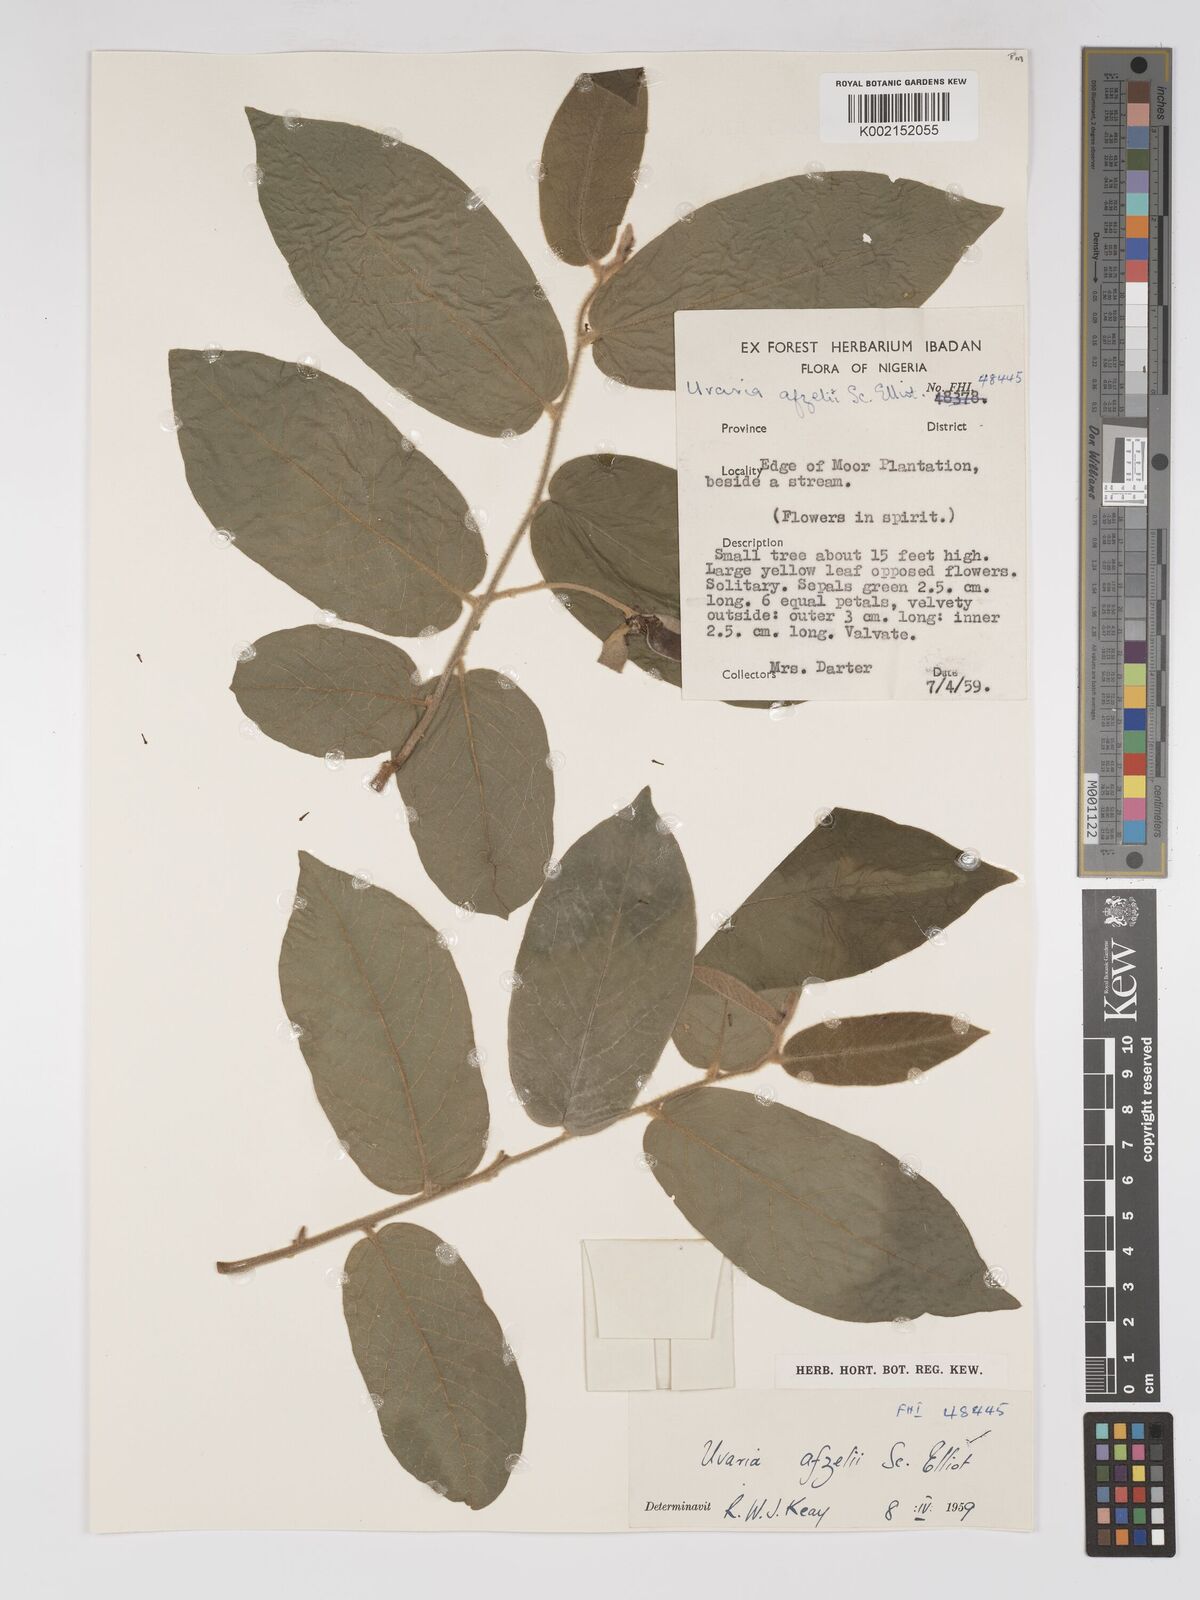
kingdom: Plantae
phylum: Tracheophyta
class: Magnoliopsida
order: Magnoliales
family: Annonaceae
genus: Uvaria
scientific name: Uvaria afzelii
